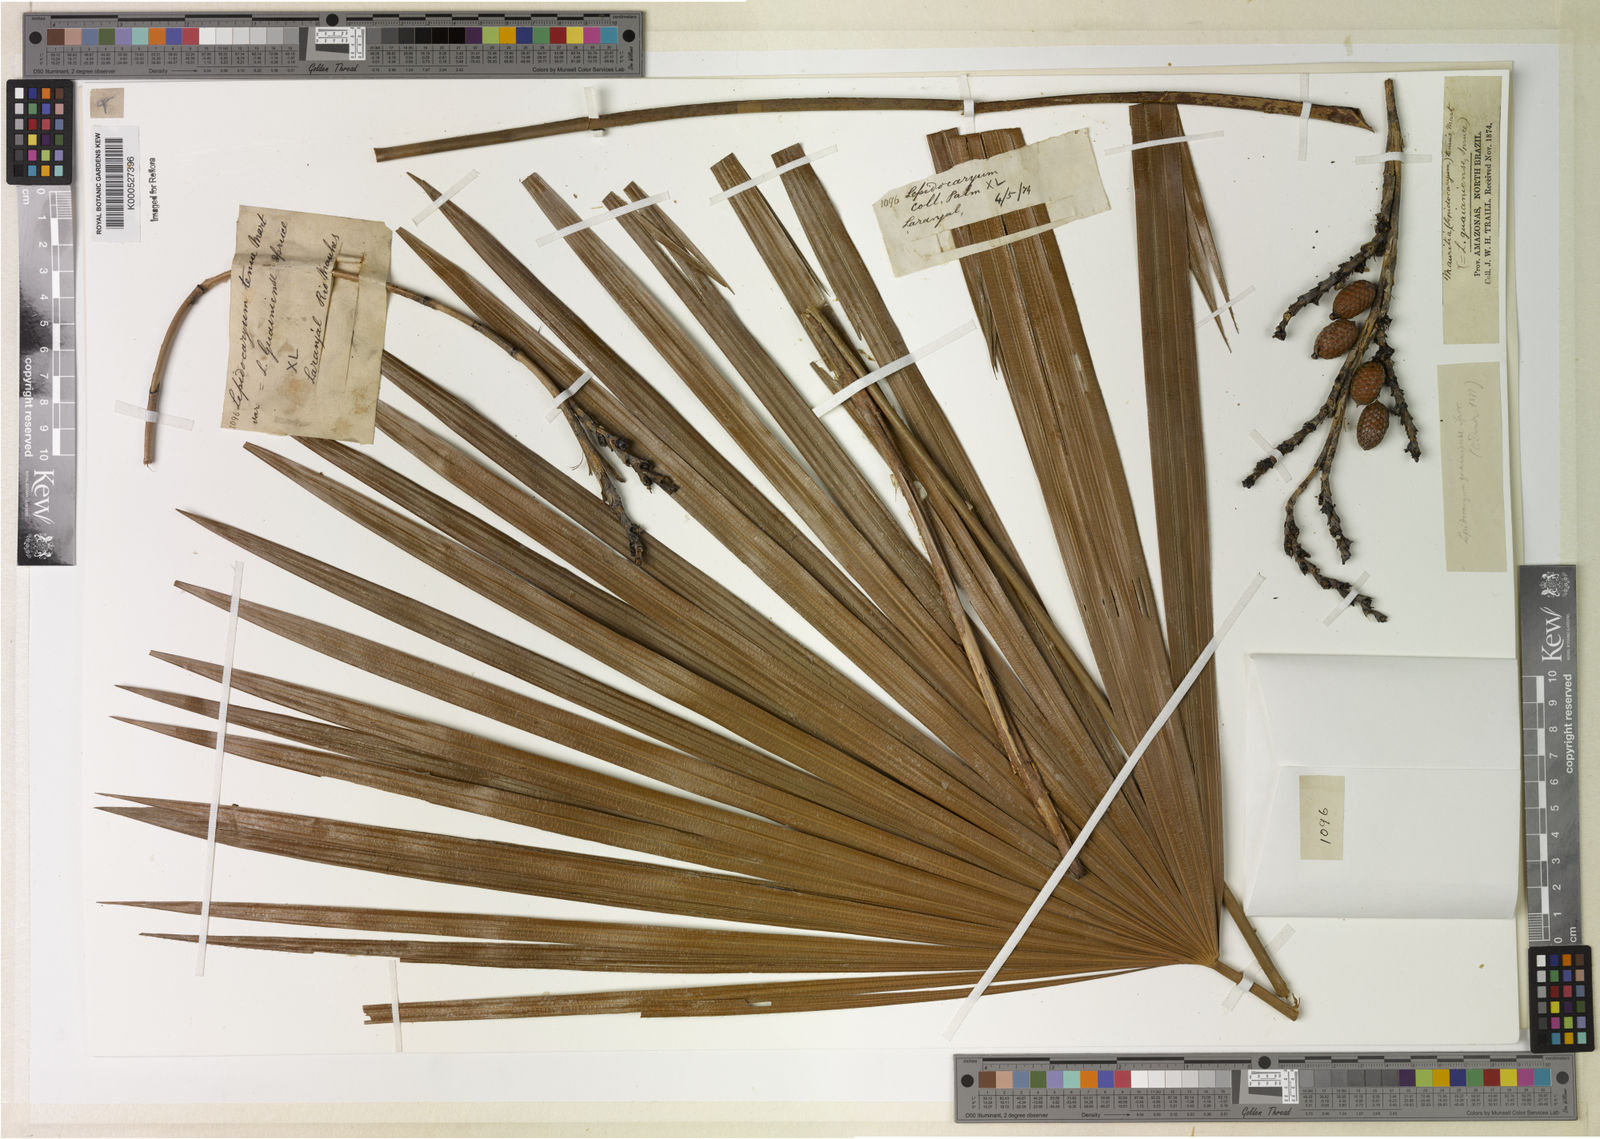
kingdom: Plantae
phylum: Tracheophyta
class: Liliopsida
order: Arecales
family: Arecaceae
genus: Lepidocaryum
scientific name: Lepidocaryum tenue
